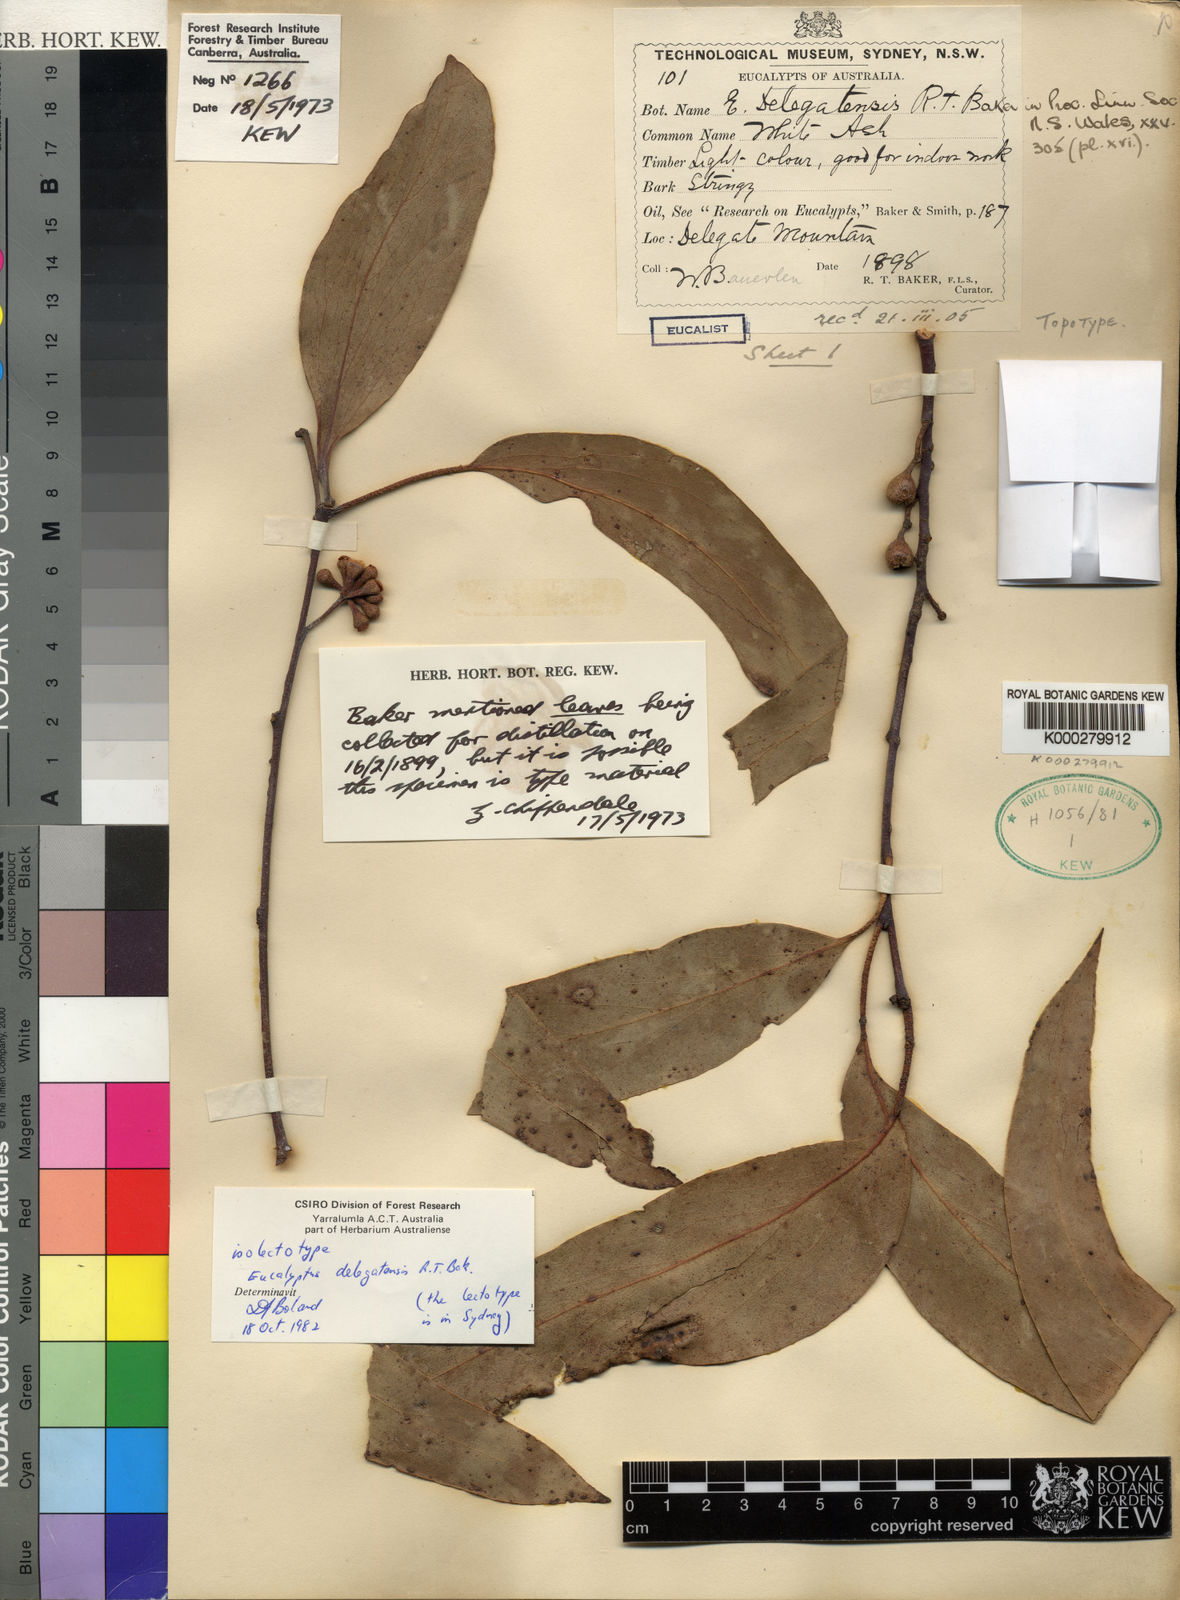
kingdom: Plantae
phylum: Tracheophyta
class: Magnoliopsida
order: Myrtales
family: Myrtaceae
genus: Eucalyptus
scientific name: Eucalyptus delegatensis
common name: Alpine-ash
